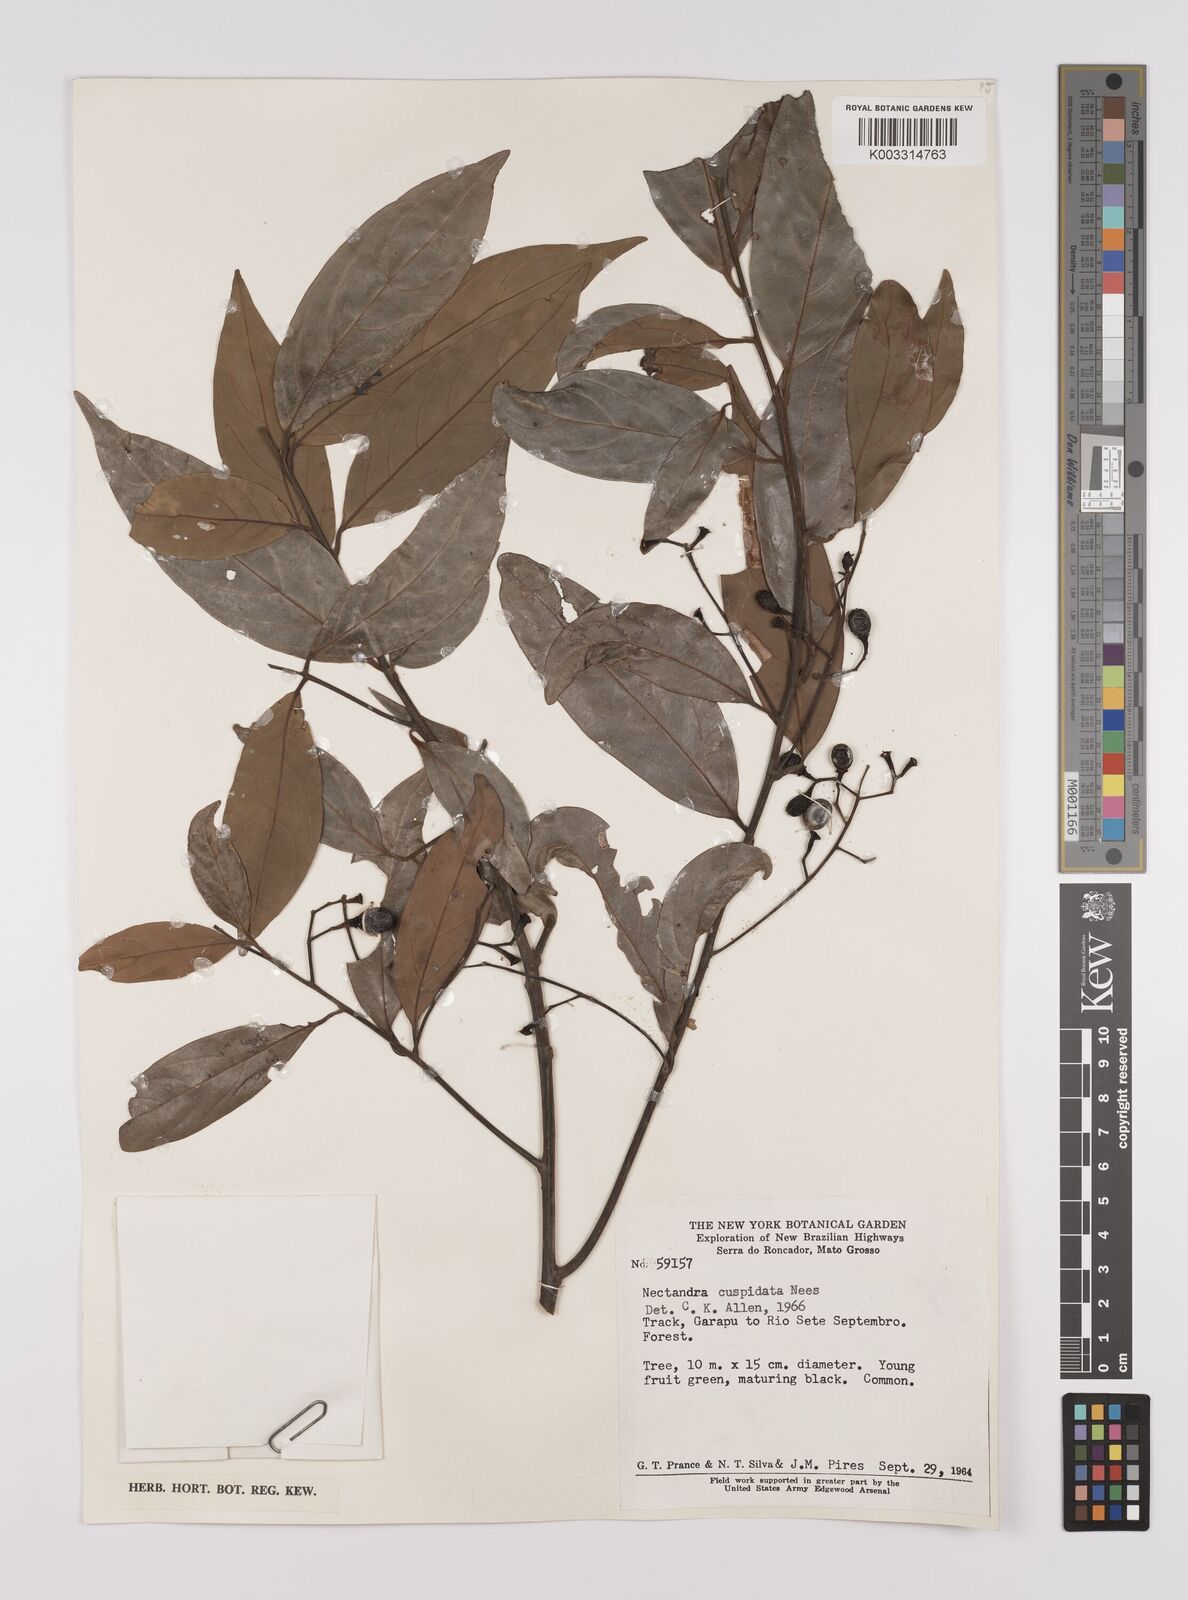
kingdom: Plantae
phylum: Tracheophyta
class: Magnoliopsida
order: Laurales
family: Lauraceae
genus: Nectandra
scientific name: Nectandra cuspidata
